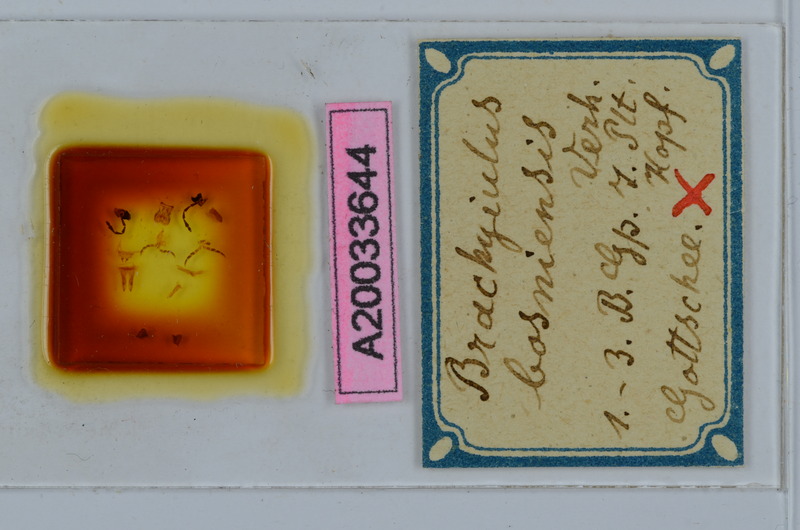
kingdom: Animalia
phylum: Arthropoda
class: Diplopoda
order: Julida
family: Julidae
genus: Megaphyllum
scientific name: Megaphyllum bosniense
